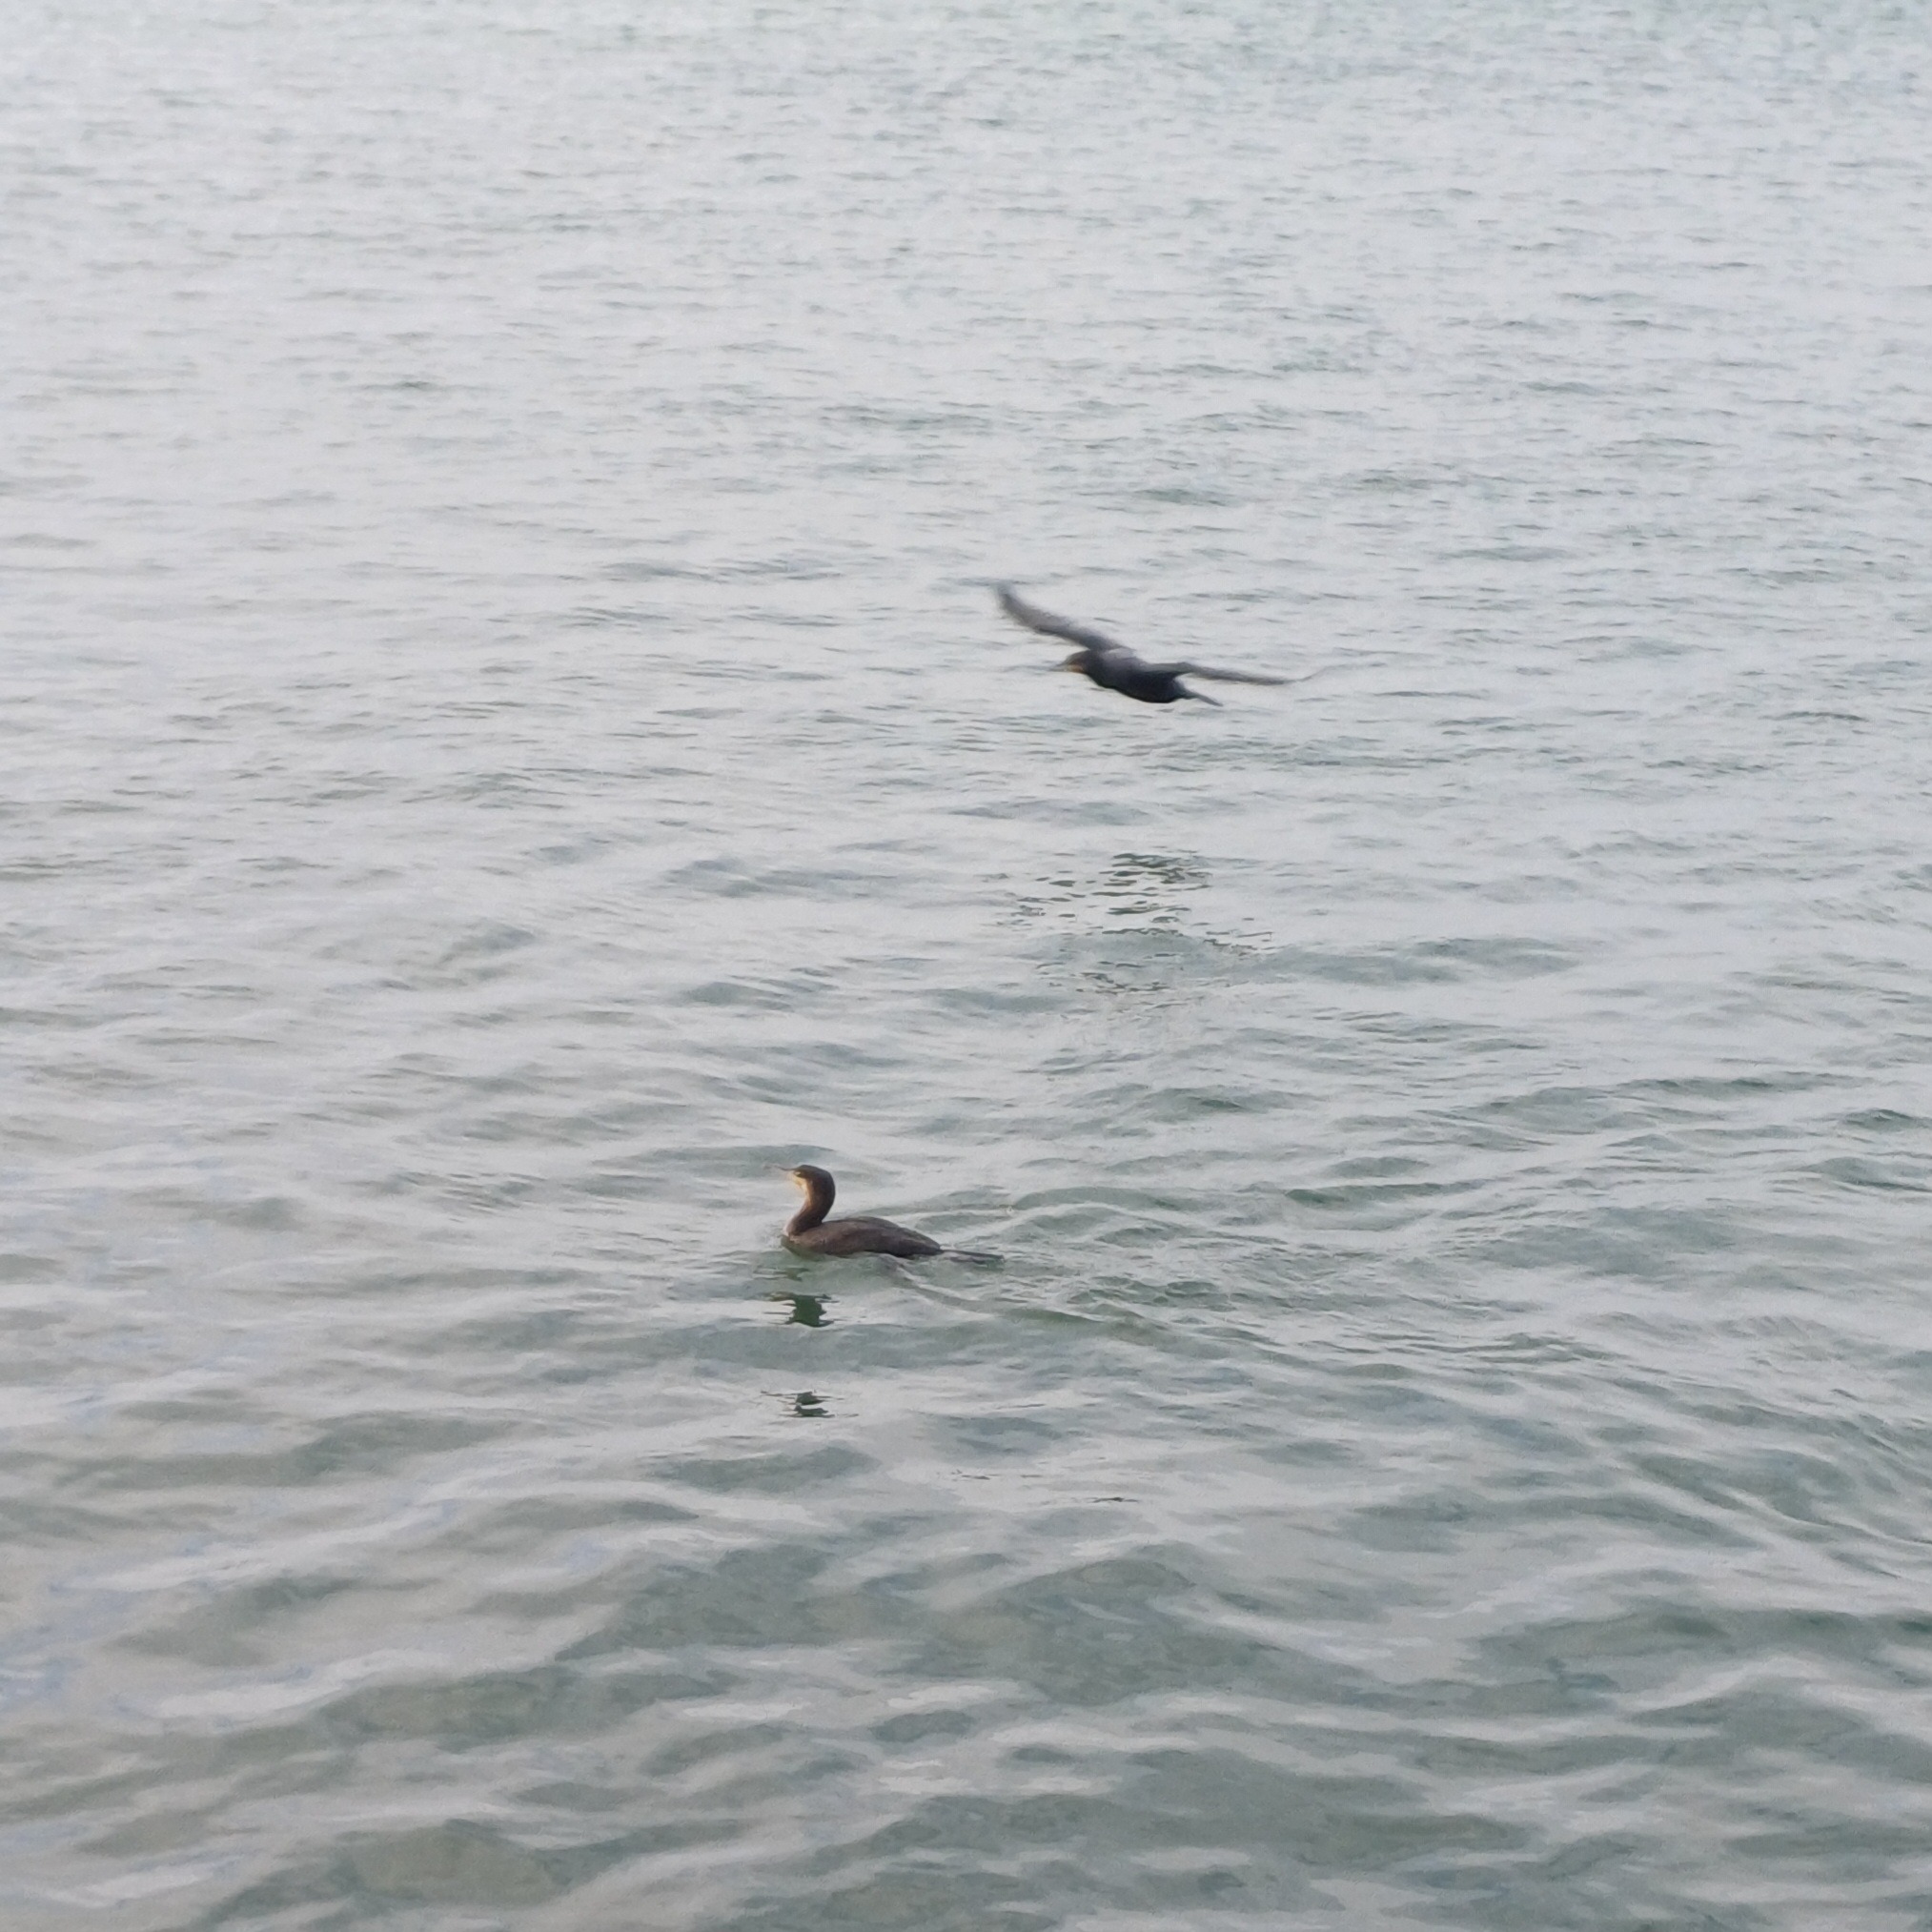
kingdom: Animalia
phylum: Chordata
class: Aves
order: Suliformes
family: Phalacrocoracidae
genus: Phalacrocorax
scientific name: Phalacrocorax carbo
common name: Skarv
